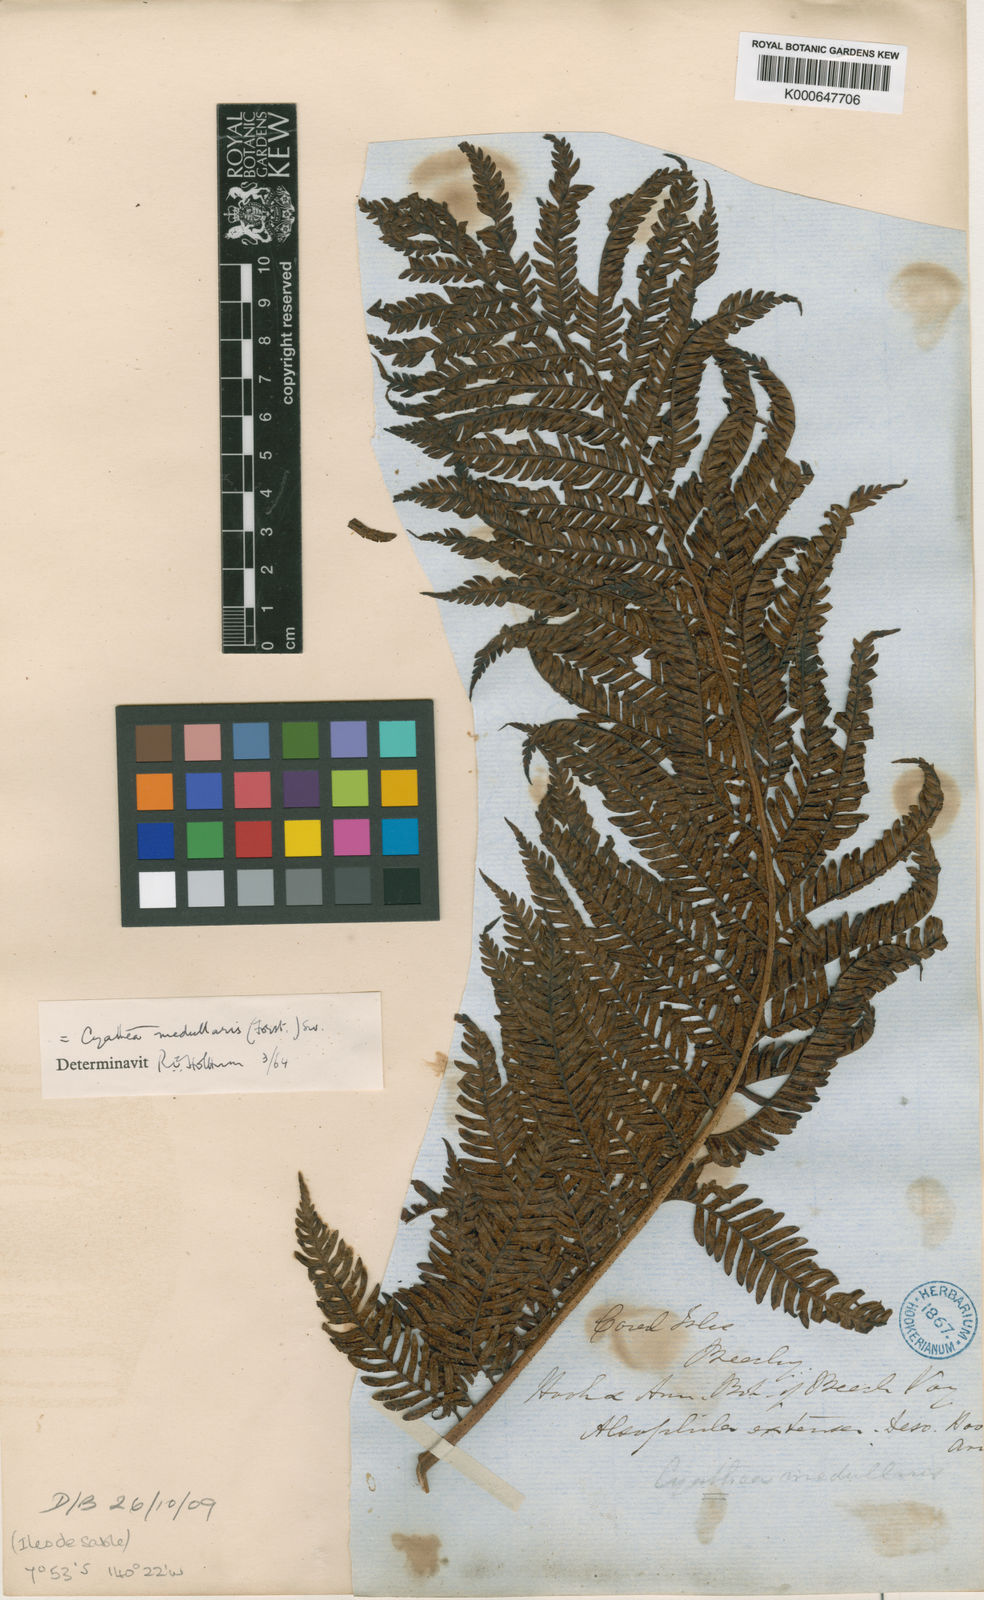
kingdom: Plantae
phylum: Tracheophyta
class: Polypodiopsida
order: Cyatheales
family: Cyatheaceae
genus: Sphaeropteris
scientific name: Sphaeropteris medullaris
